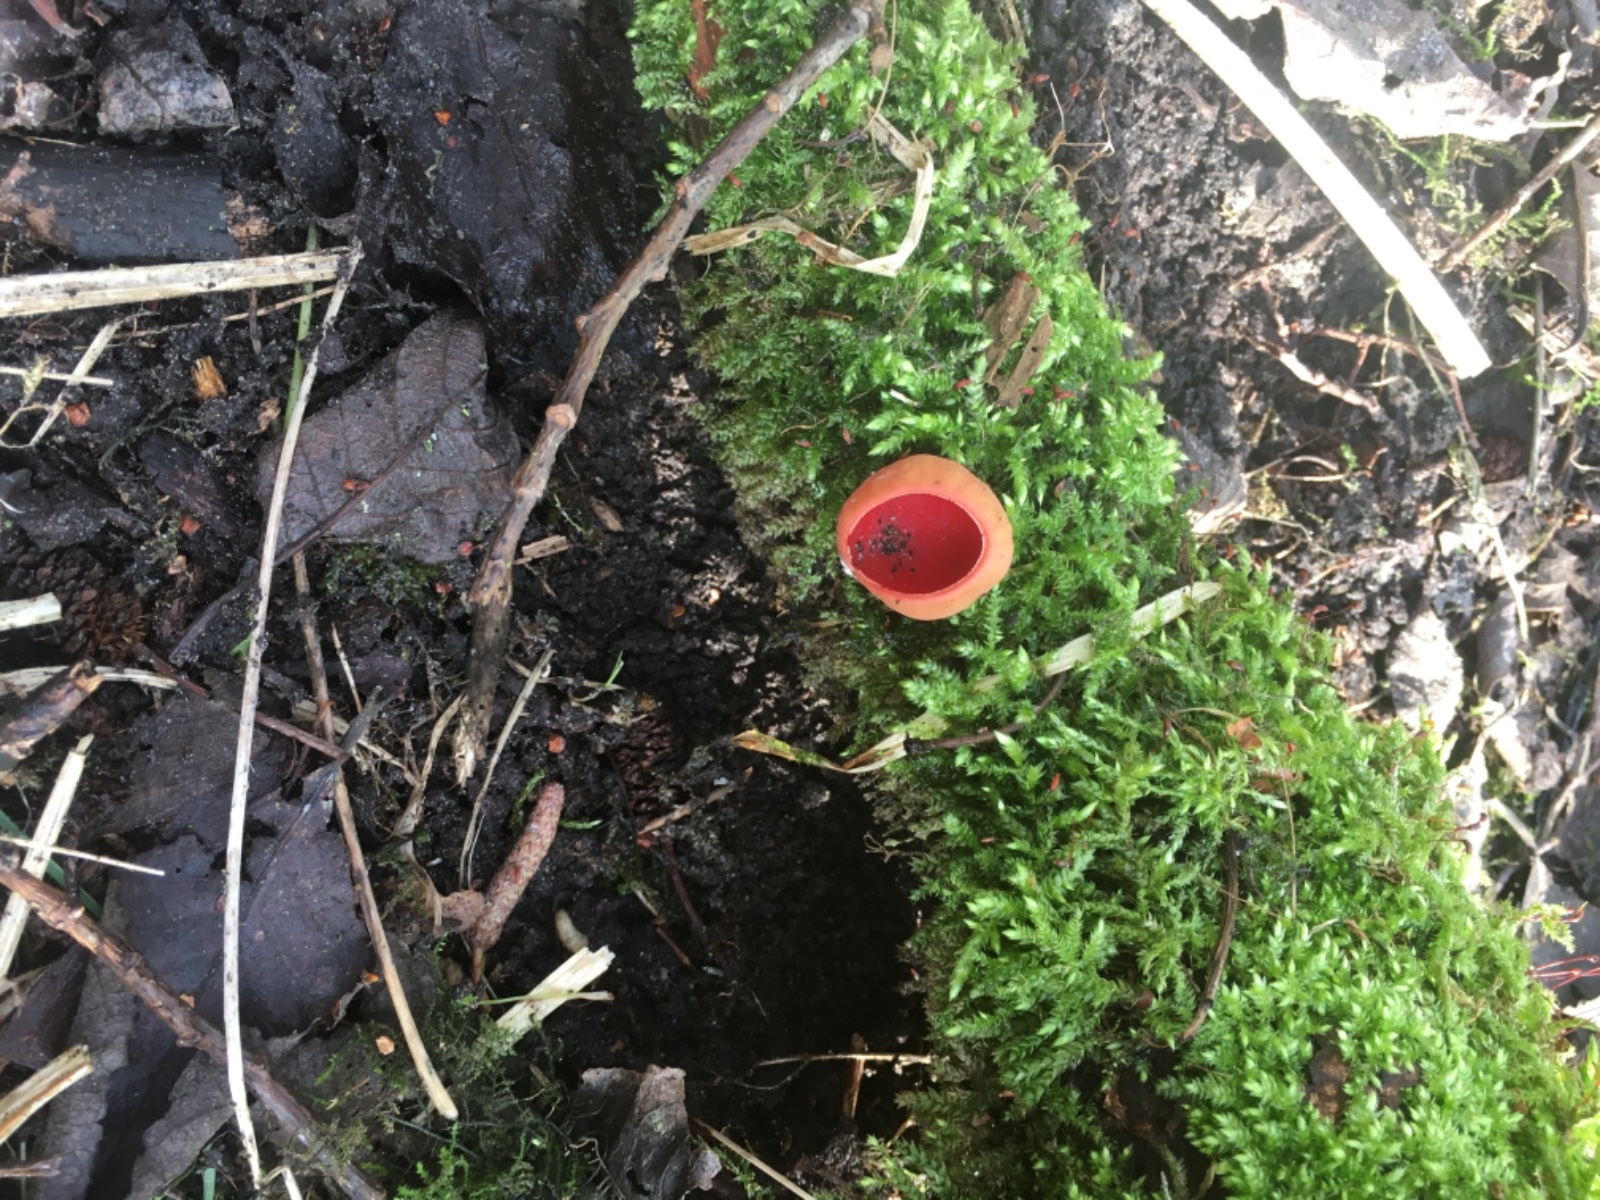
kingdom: Fungi
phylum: Ascomycota
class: Pezizomycetes
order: Pezizales
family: Sarcoscyphaceae
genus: Sarcoscypha
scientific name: Sarcoscypha austriaca
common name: krølhåret pragtbæger
